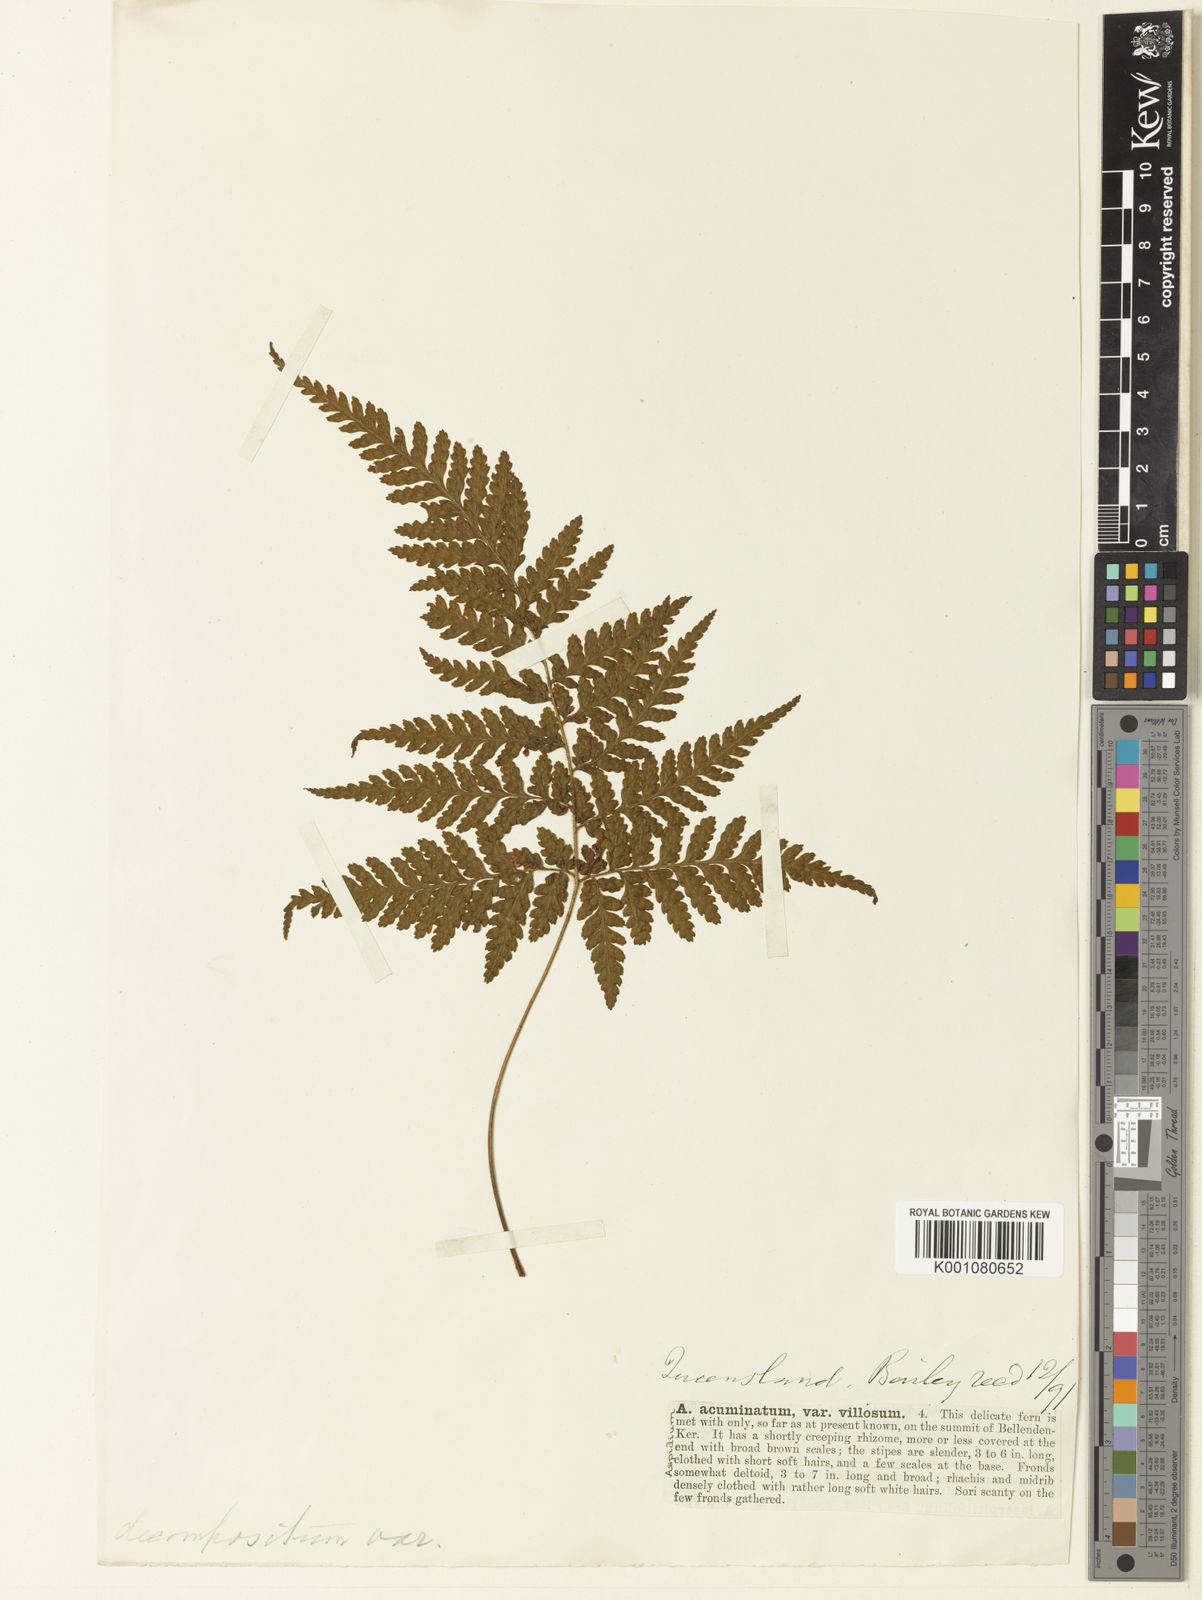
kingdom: Plantae
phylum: Tracheophyta
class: Polypodiopsida
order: Polypodiales
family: Dryopteridaceae
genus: Parapolystichum
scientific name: Parapolystichum microsorum
